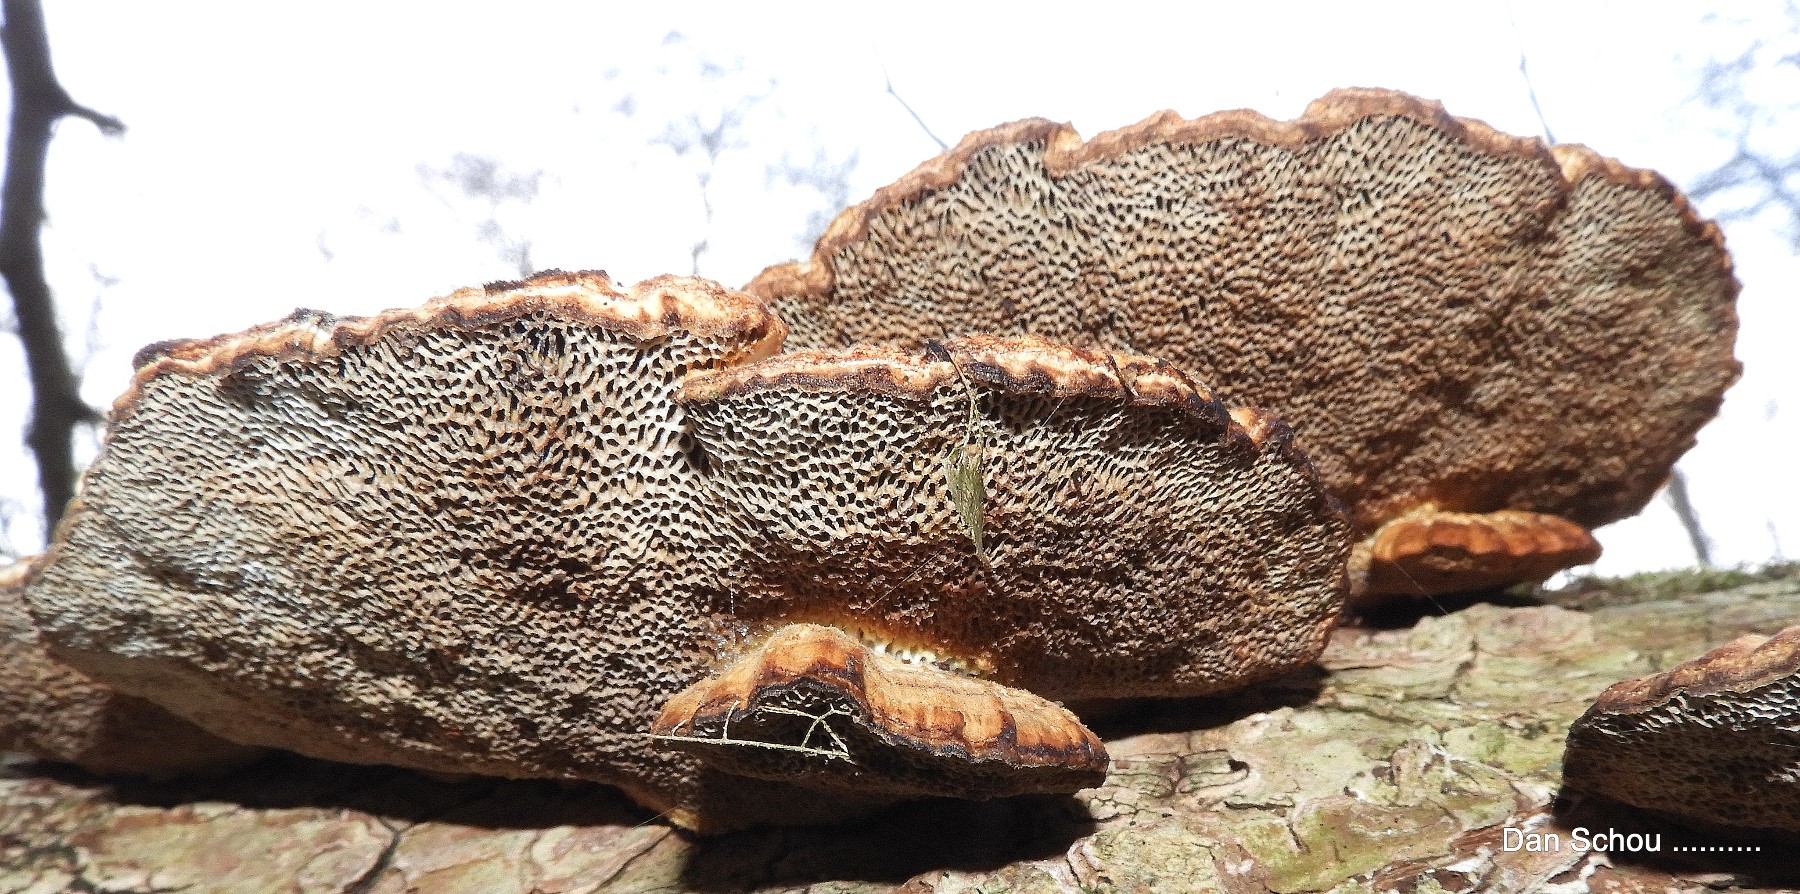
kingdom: Fungi
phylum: Basidiomycota
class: Agaricomycetes
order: Polyporales
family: Polyporaceae
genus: Daedaleopsis
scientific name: Daedaleopsis confragosa
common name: rødmende læderporesvamp
